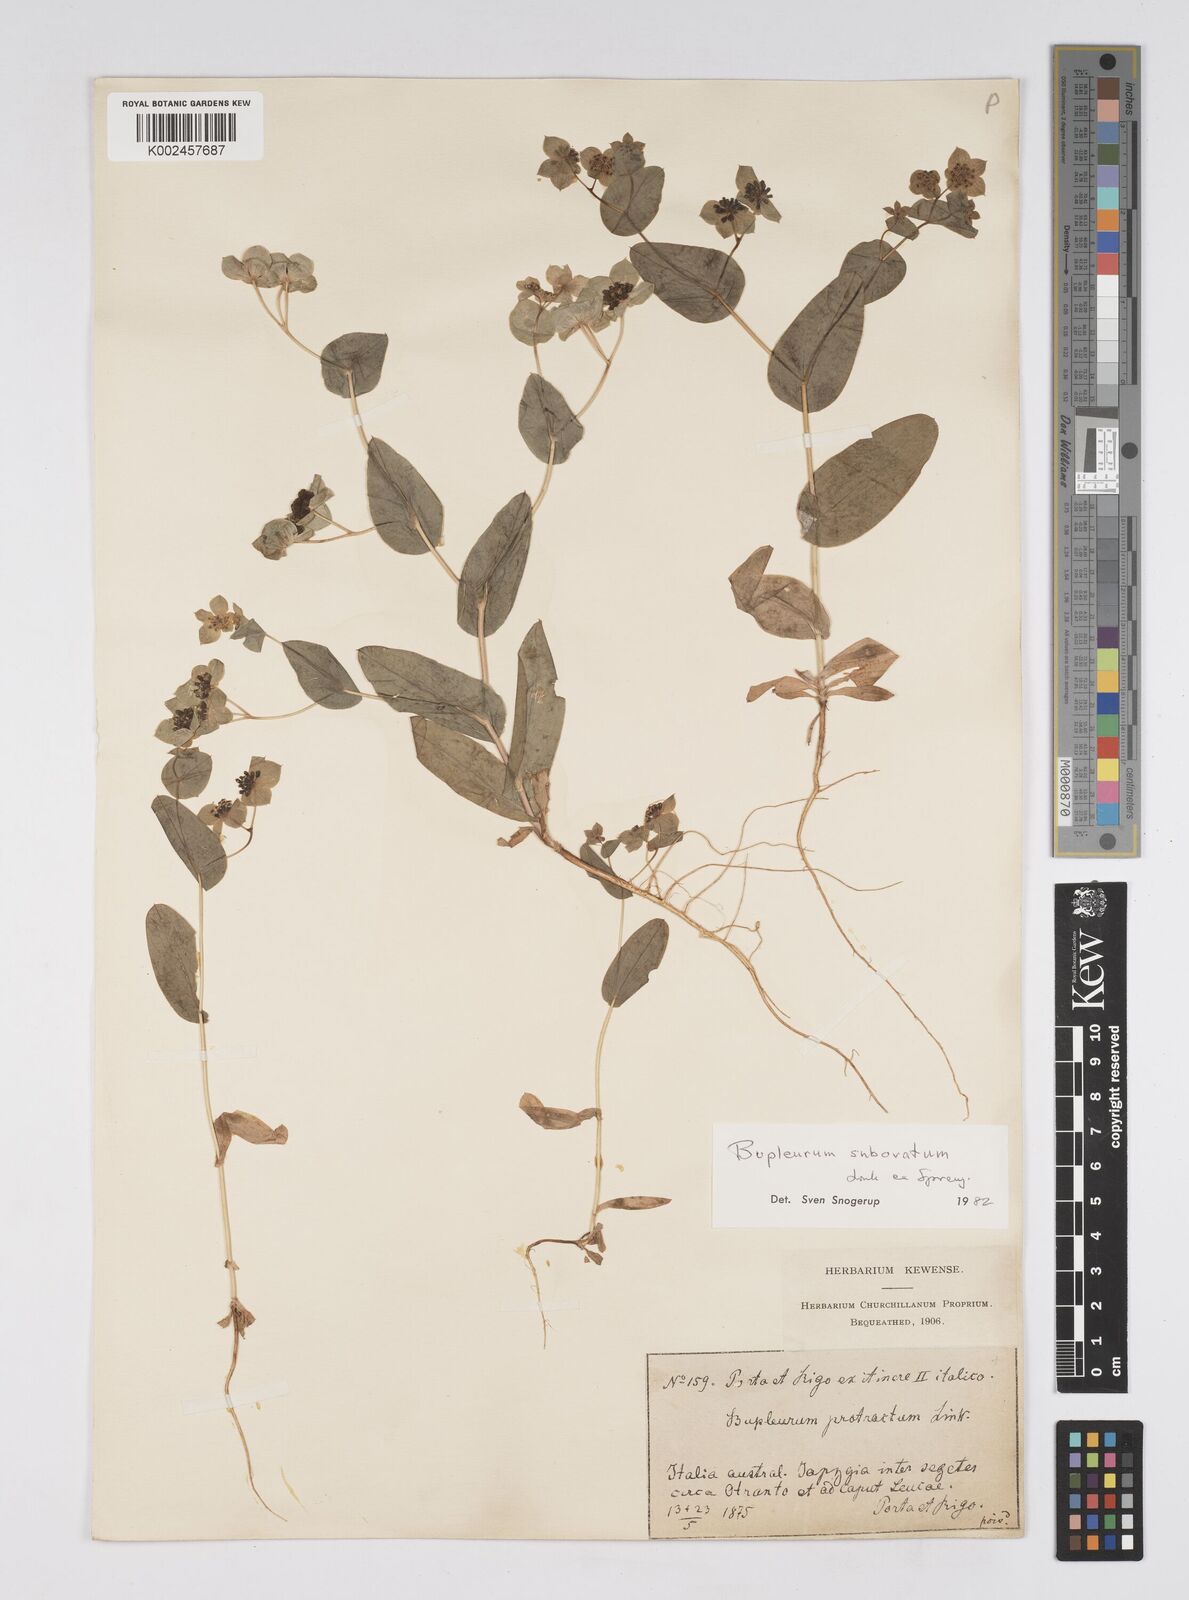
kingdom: Plantae
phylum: Tracheophyta
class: Magnoliopsida
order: Apiales
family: Apiaceae
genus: Bupleurum
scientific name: Bupleurum lancifolium
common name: False thorow-wax
